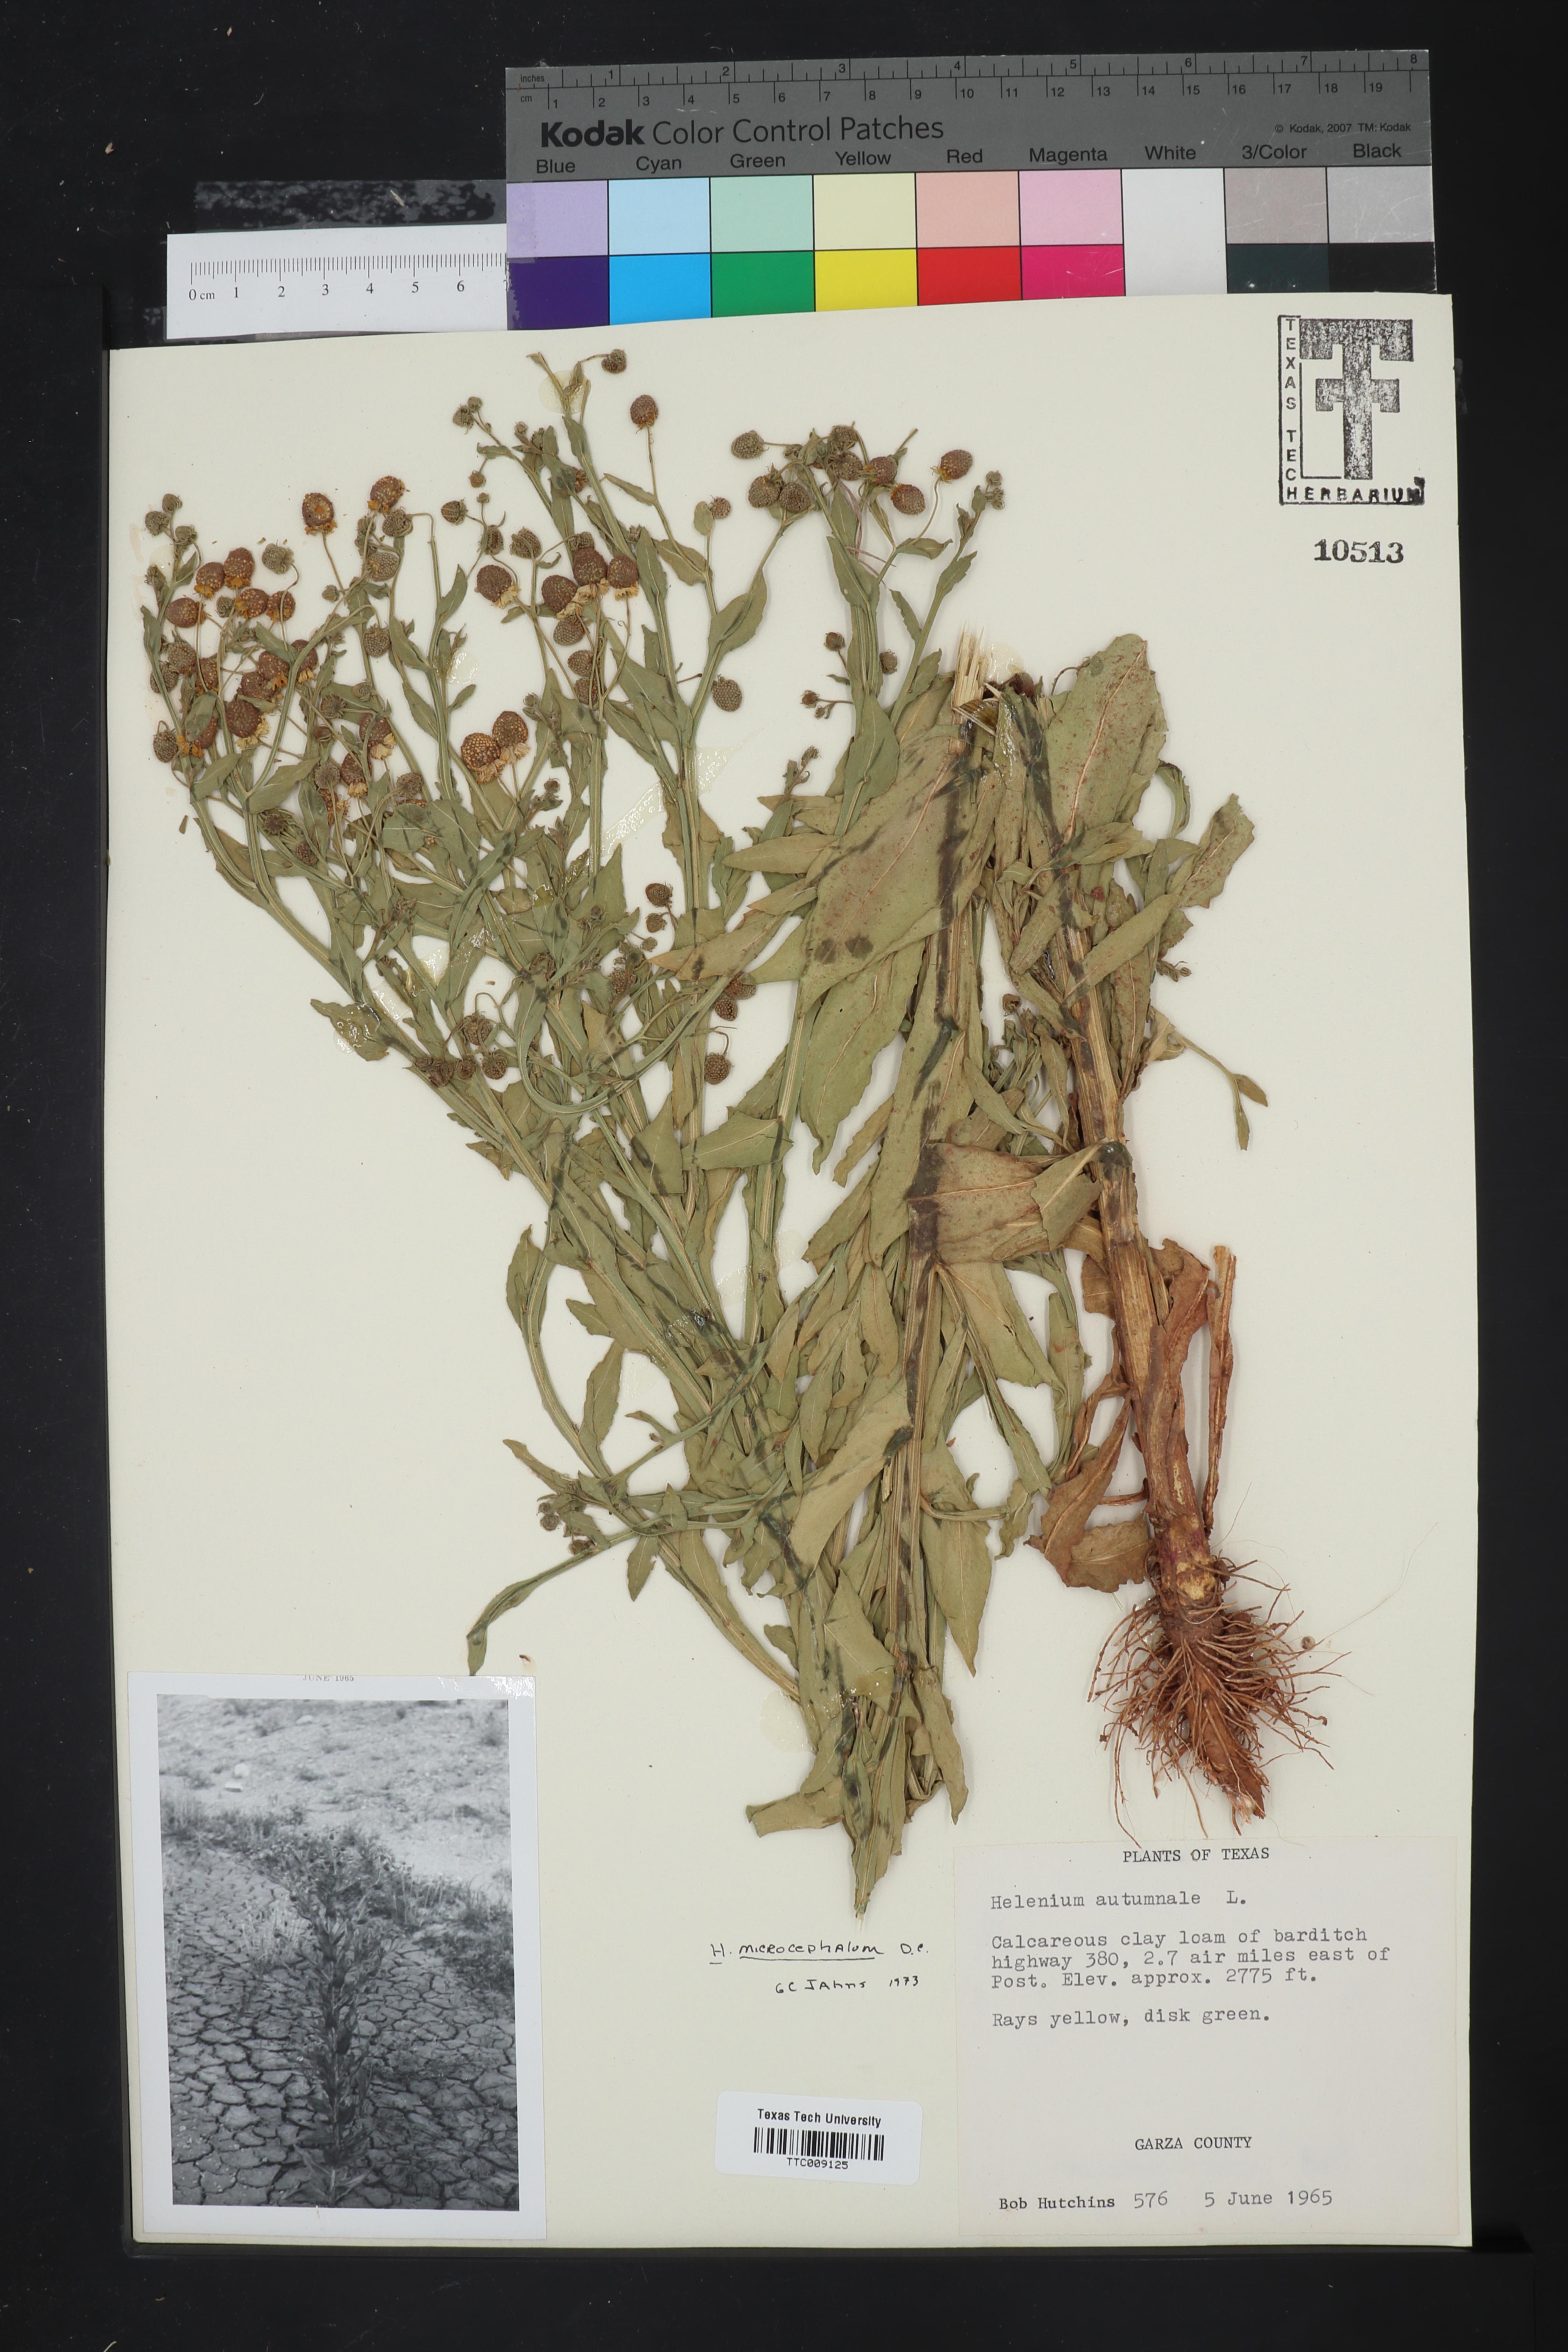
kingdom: Plantae
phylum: Tracheophyta
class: Magnoliopsida
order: Asterales
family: Asteraceae
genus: Helenium
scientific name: Helenium microcephalum
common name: Smallhead sneezeweed
